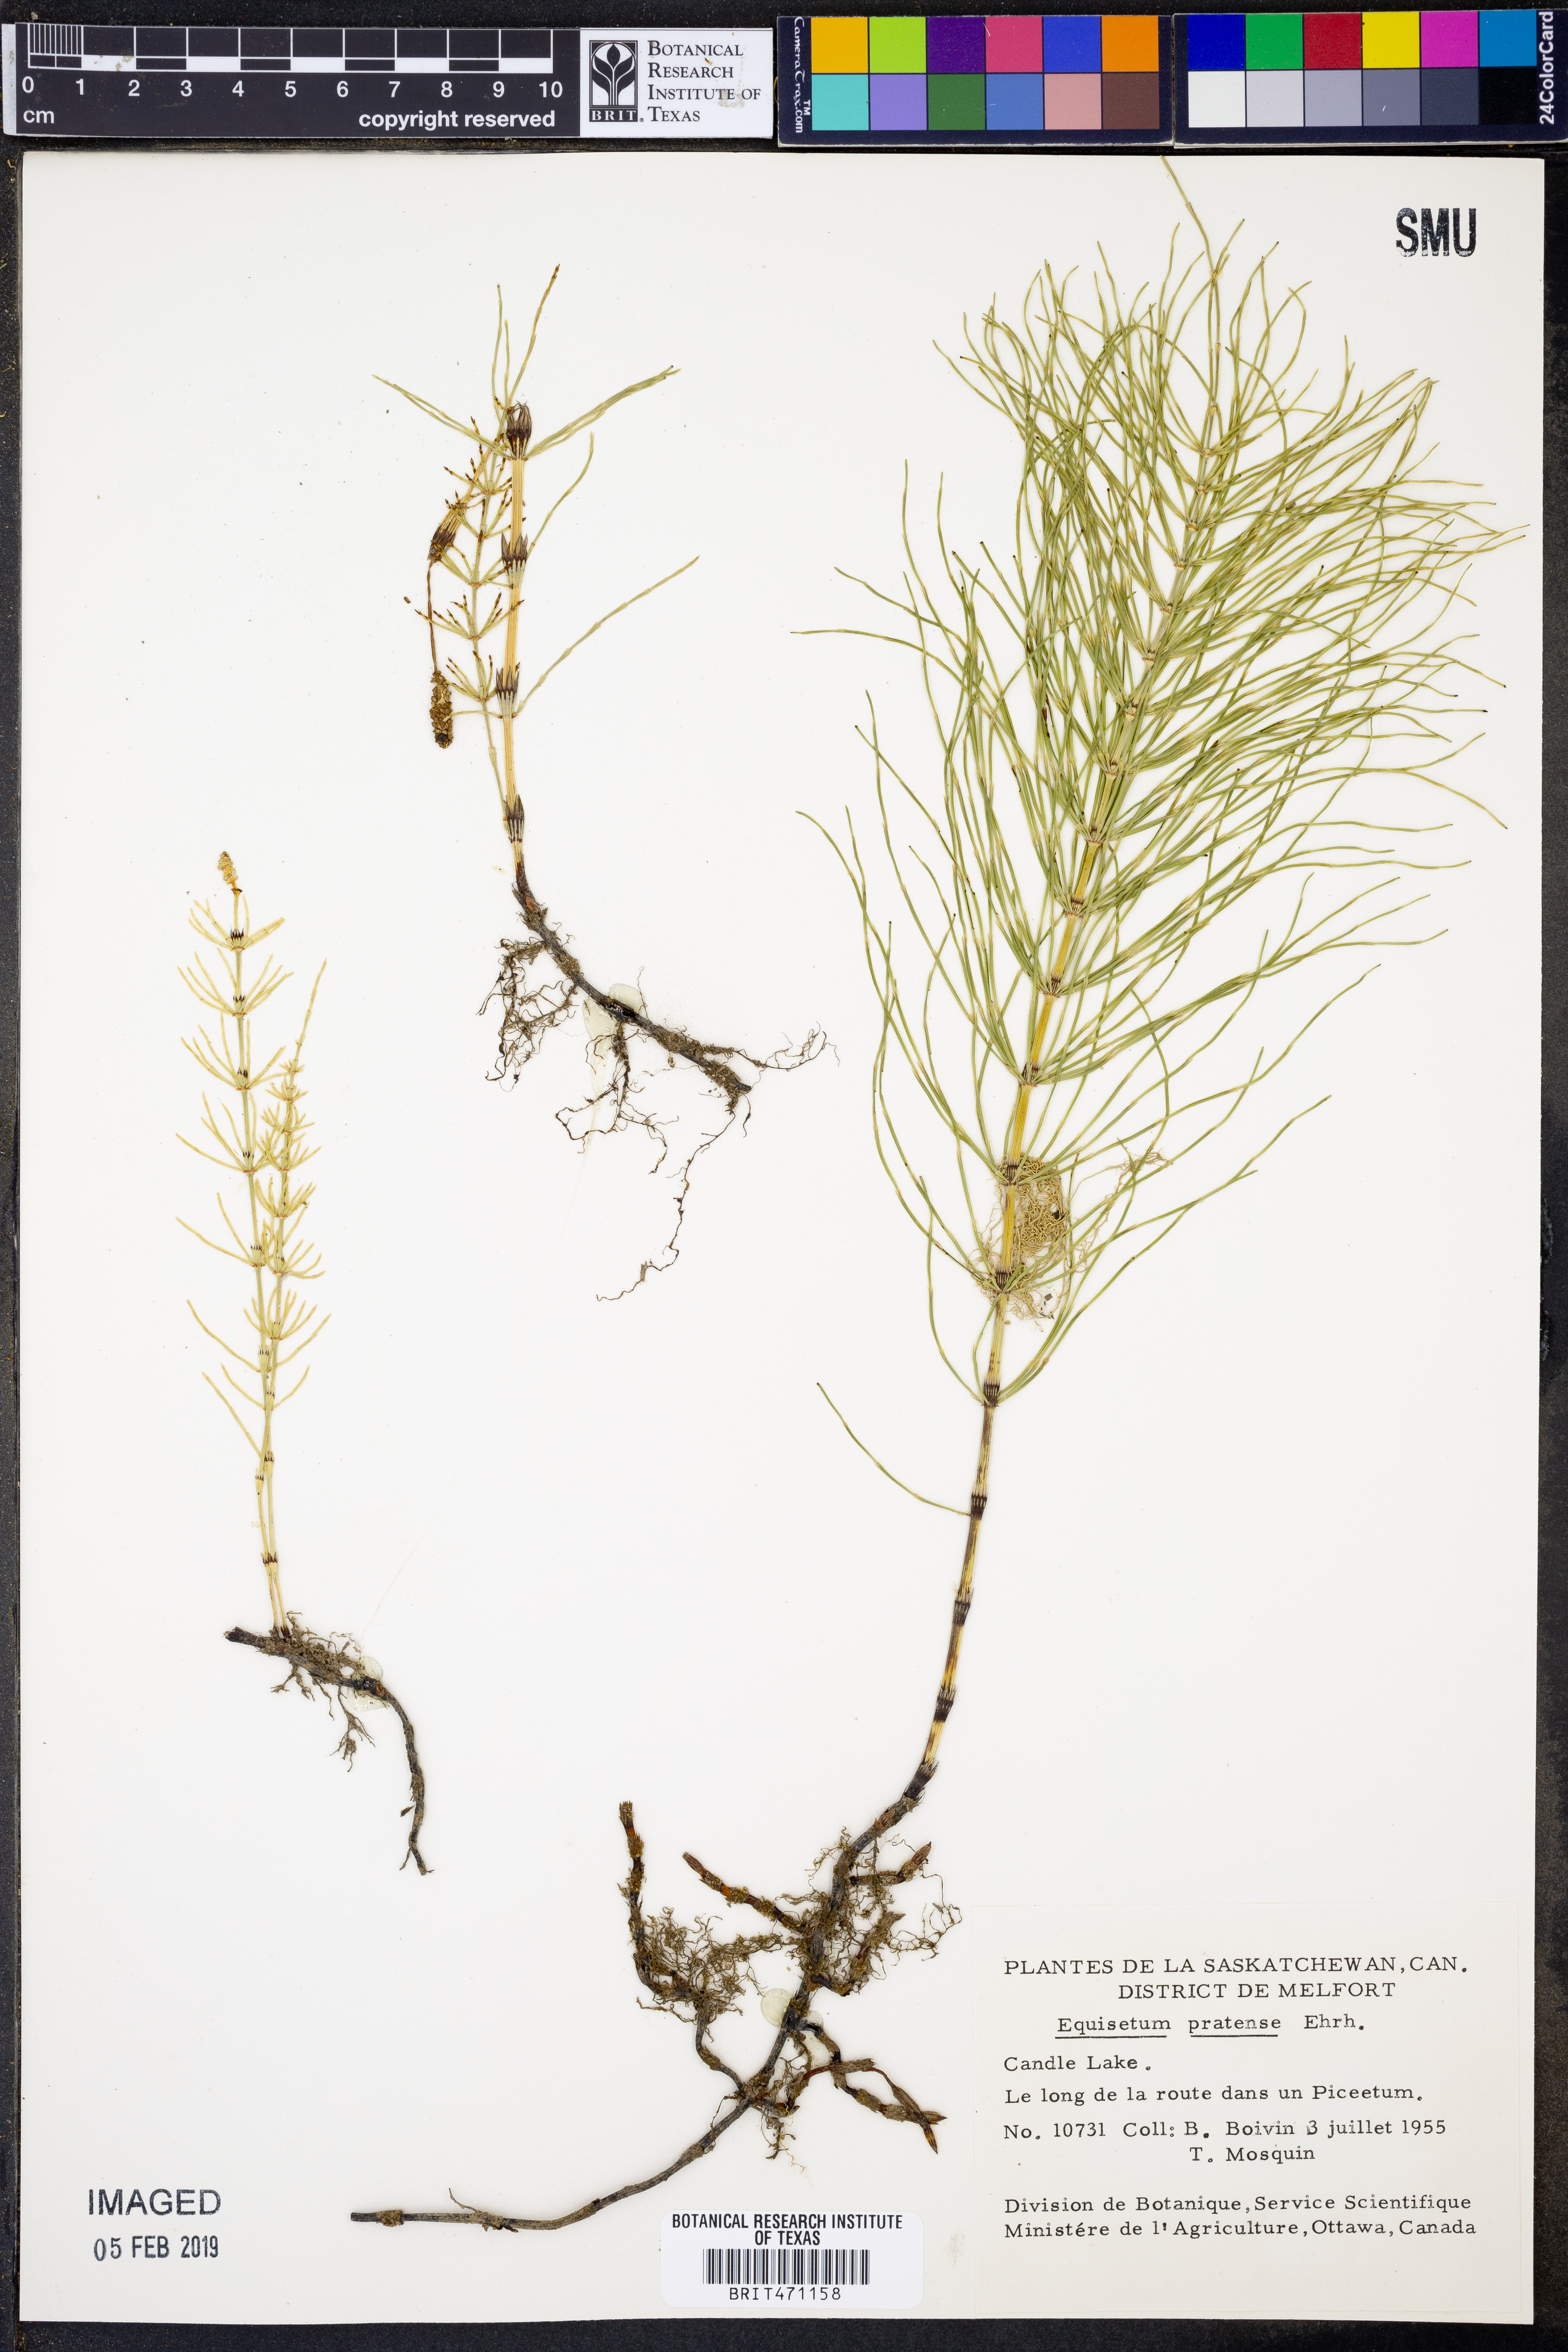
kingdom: Plantae
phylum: Tracheophyta
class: Polypodiopsida
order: Equisetales
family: Equisetaceae
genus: Equisetum
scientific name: Equisetum pratense
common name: Meadow horsetail
